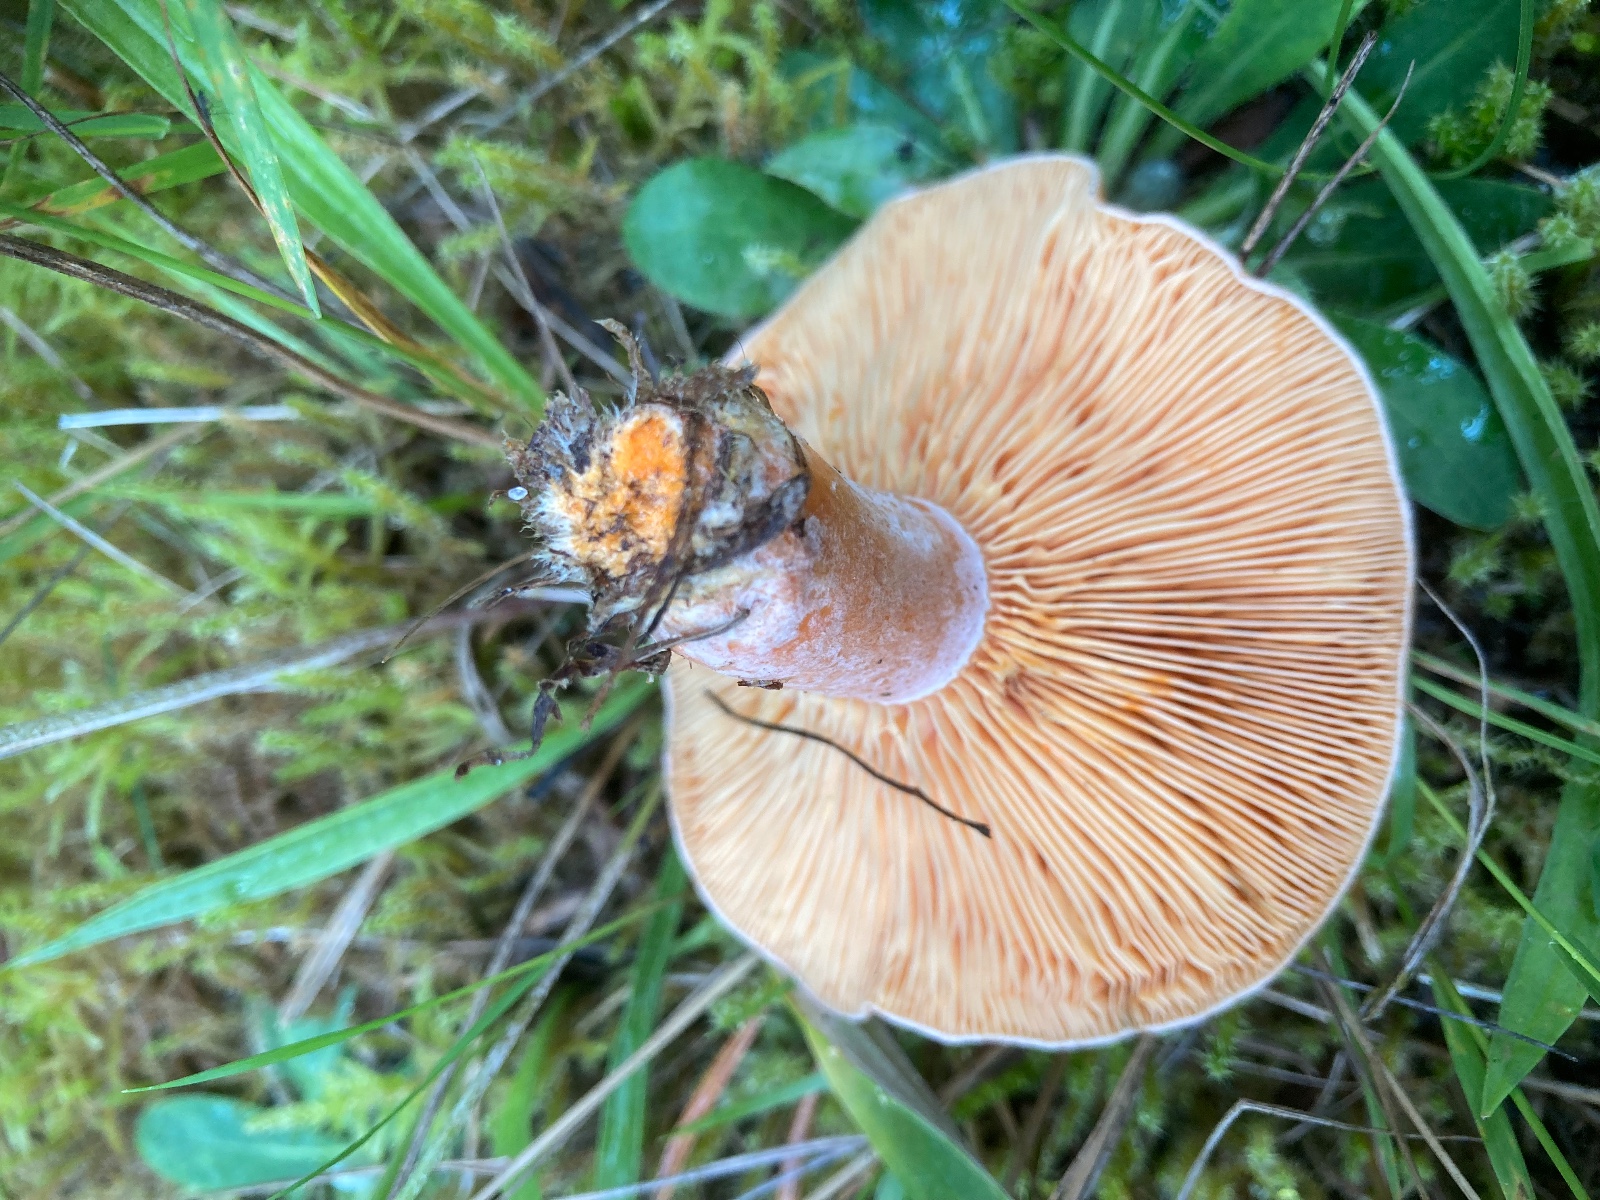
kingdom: Fungi
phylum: Basidiomycota
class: Agaricomycetes
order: Russulales
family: Russulaceae
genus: Lactarius
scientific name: Lactarius deliciosus
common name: velsmagende mælkehat
